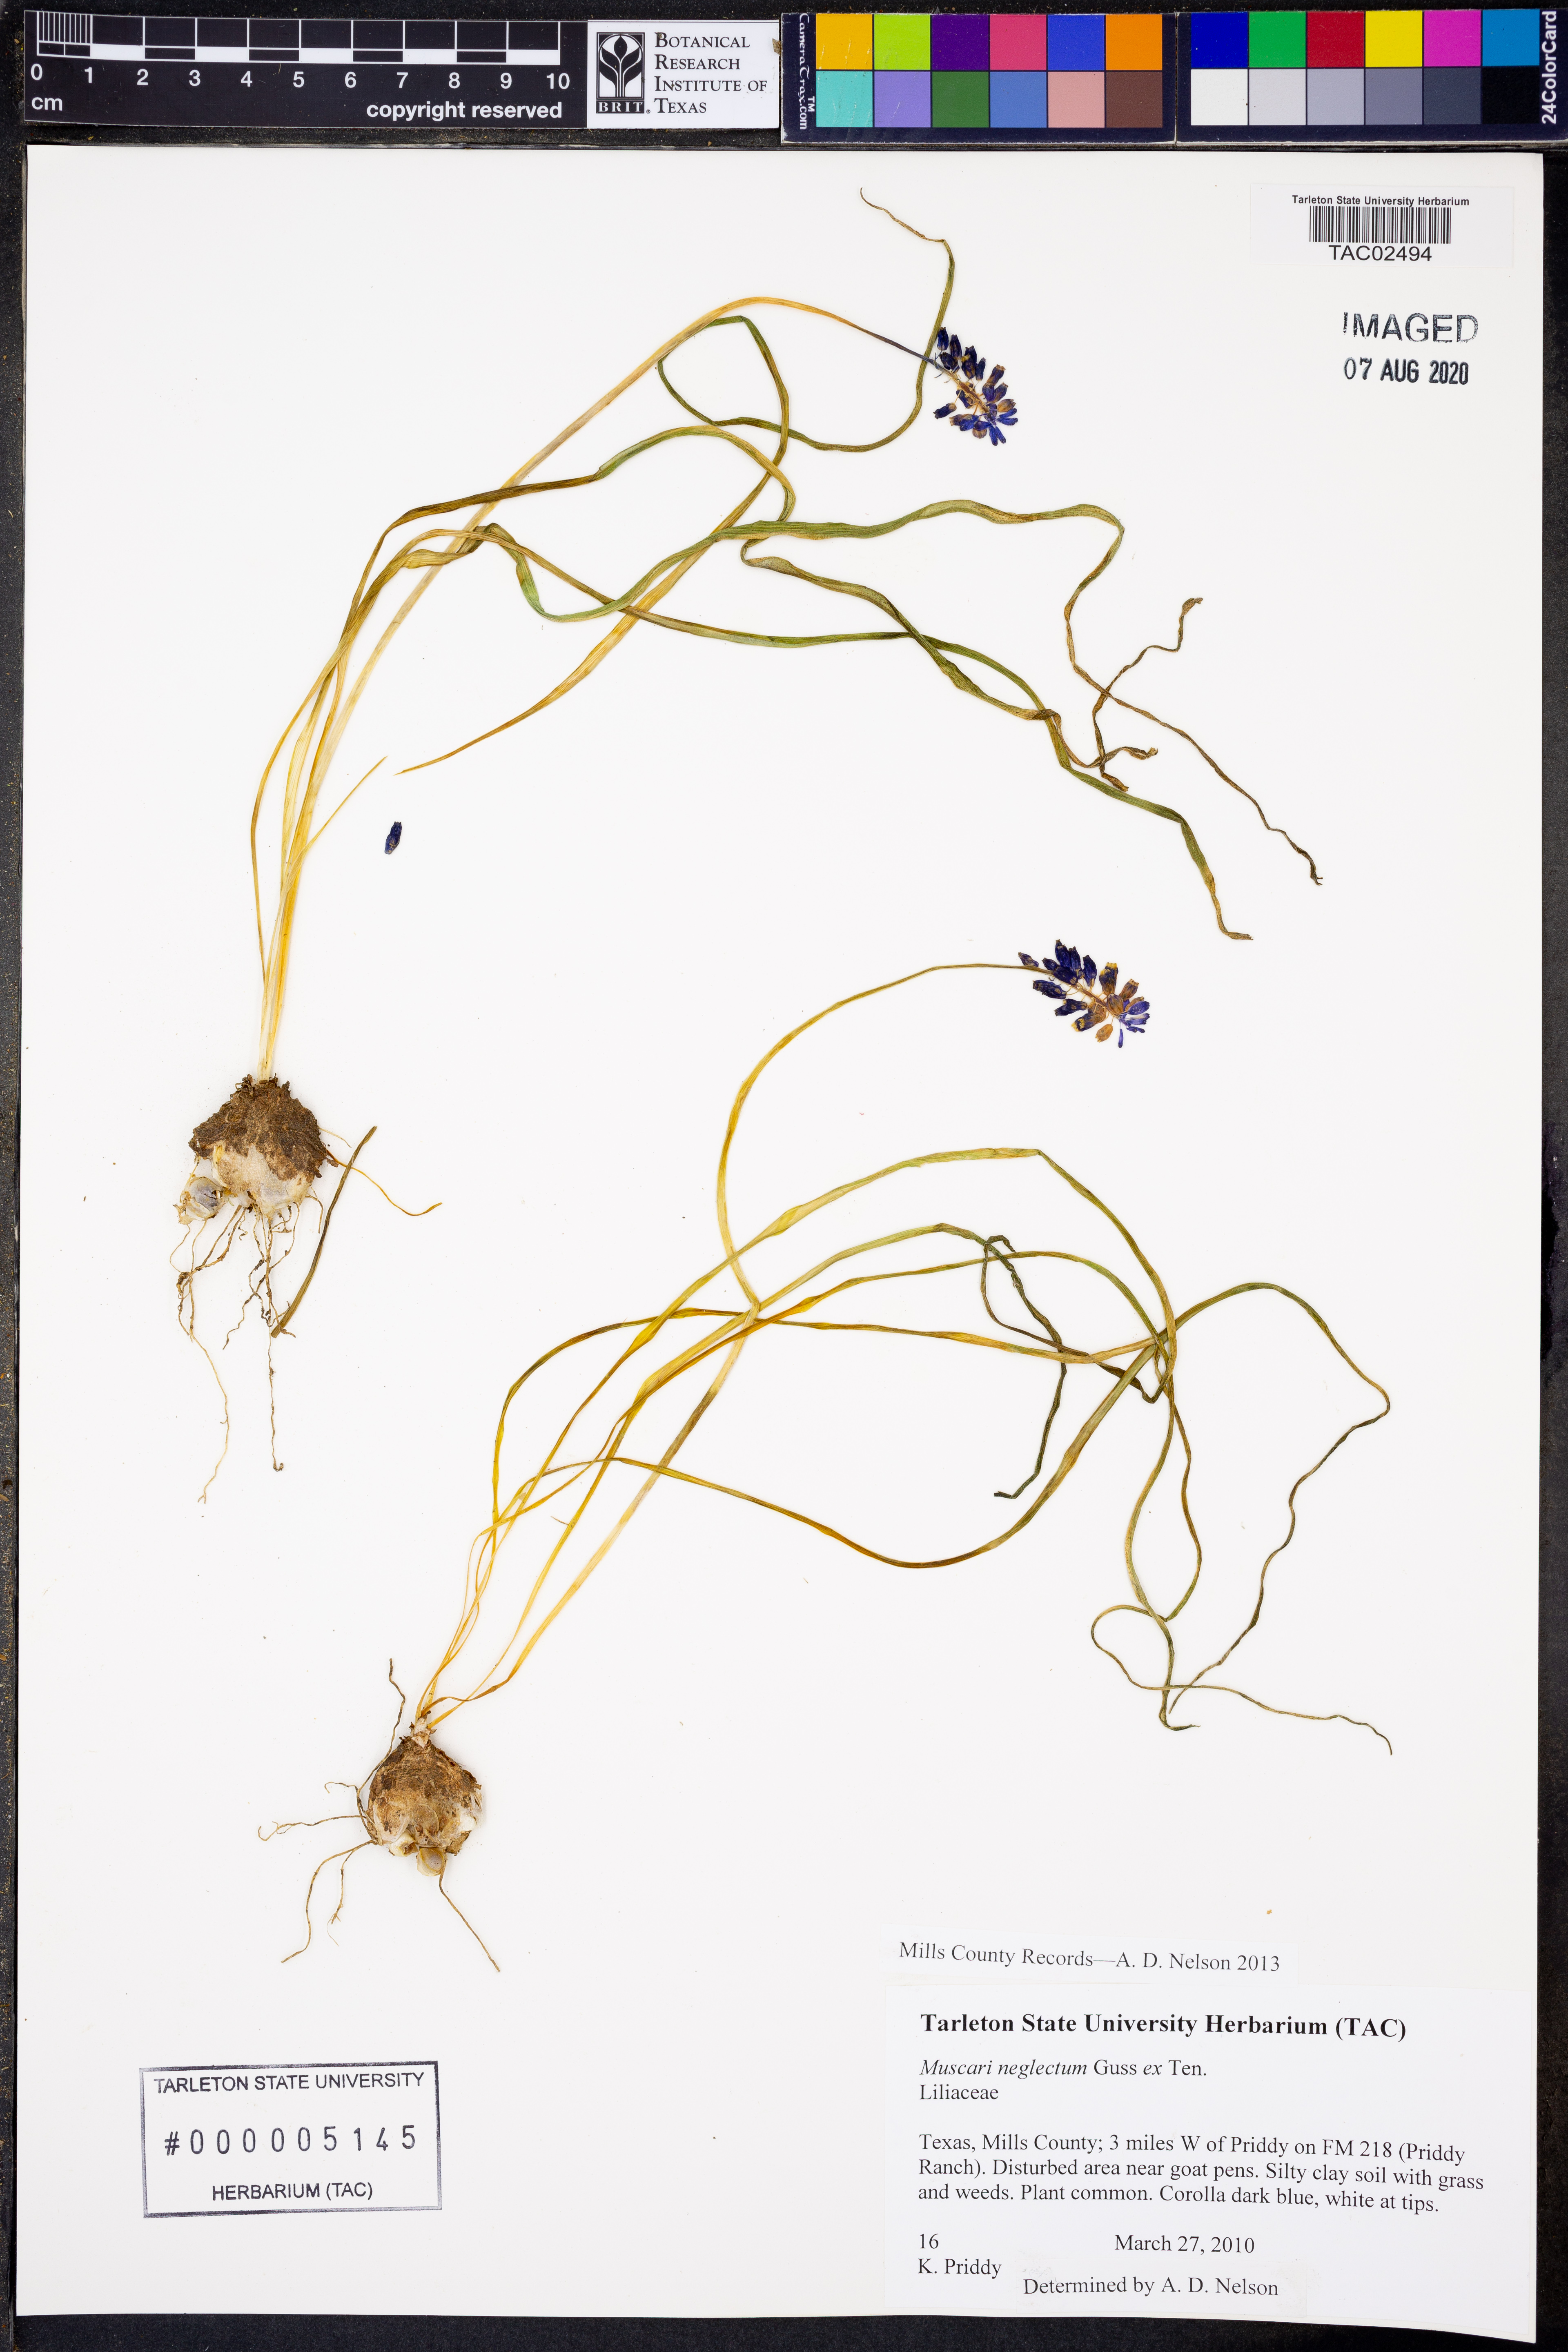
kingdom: Plantae
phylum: Tracheophyta
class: Liliopsida
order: Asparagales
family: Asparagaceae
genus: Muscari
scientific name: Muscari neglectum
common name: Grape-hyacinth
